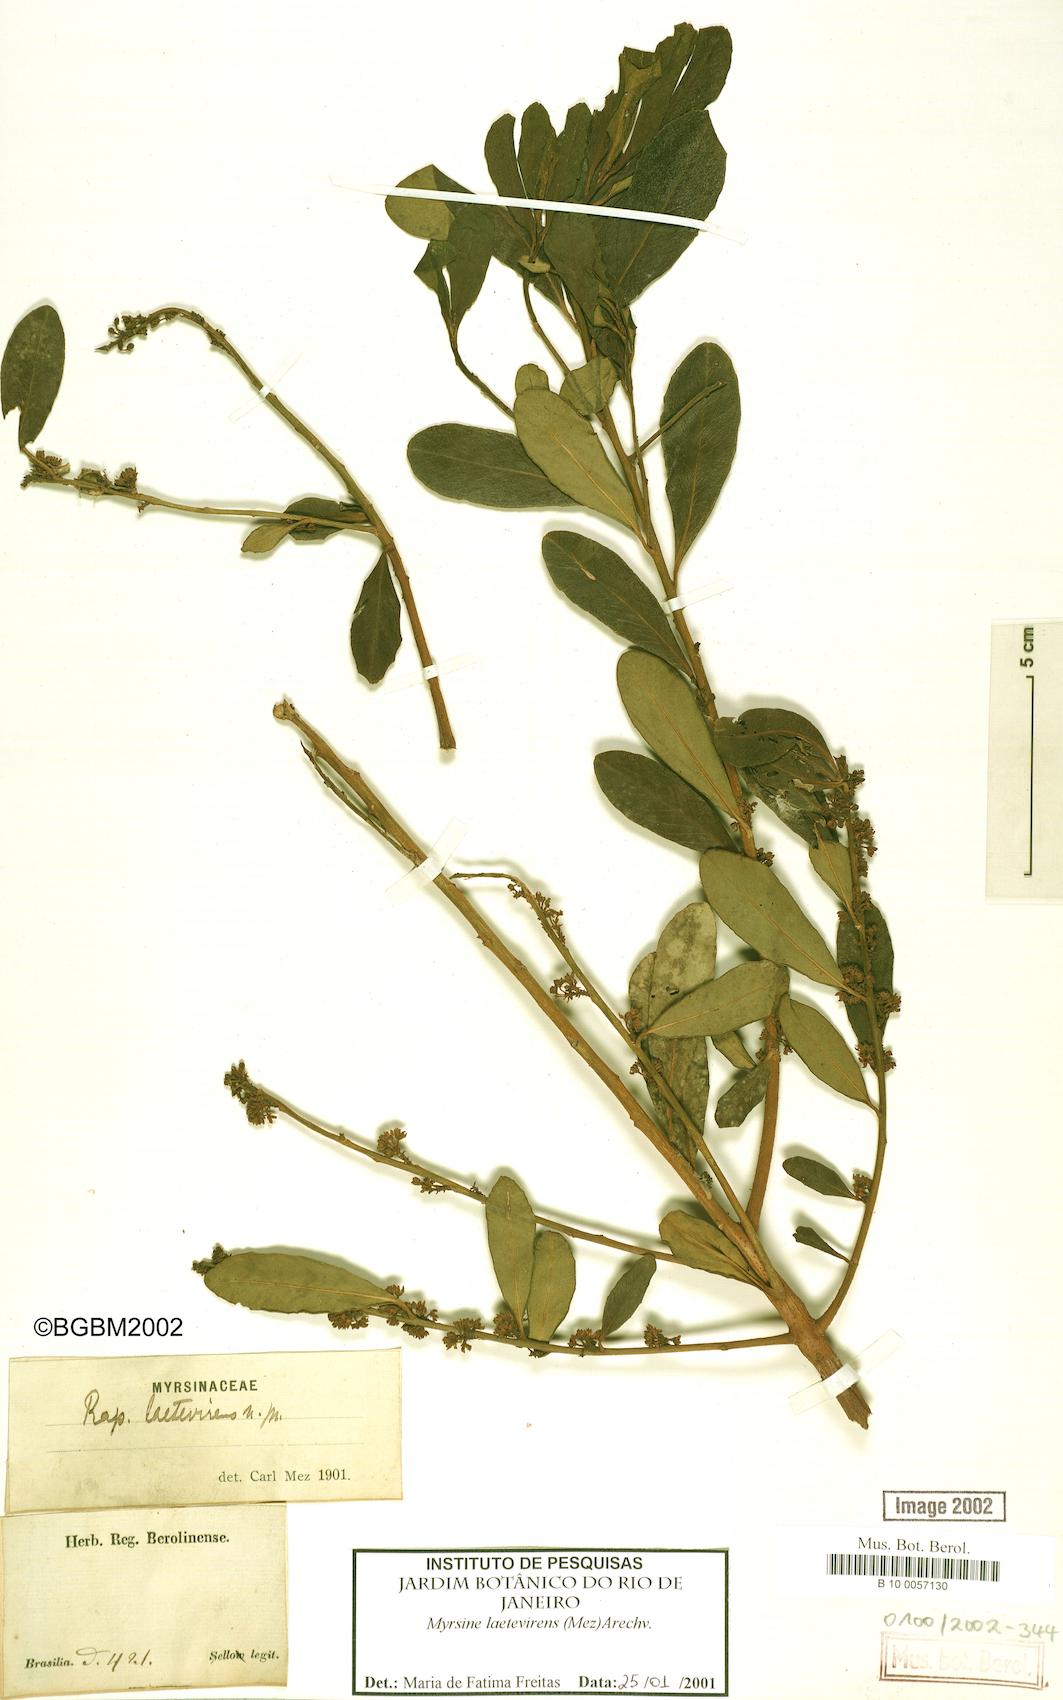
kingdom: Plantae
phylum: Tracheophyta
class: Magnoliopsida
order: Ericales
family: Primulaceae
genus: Myrsine
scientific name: Myrsine laetevirens
